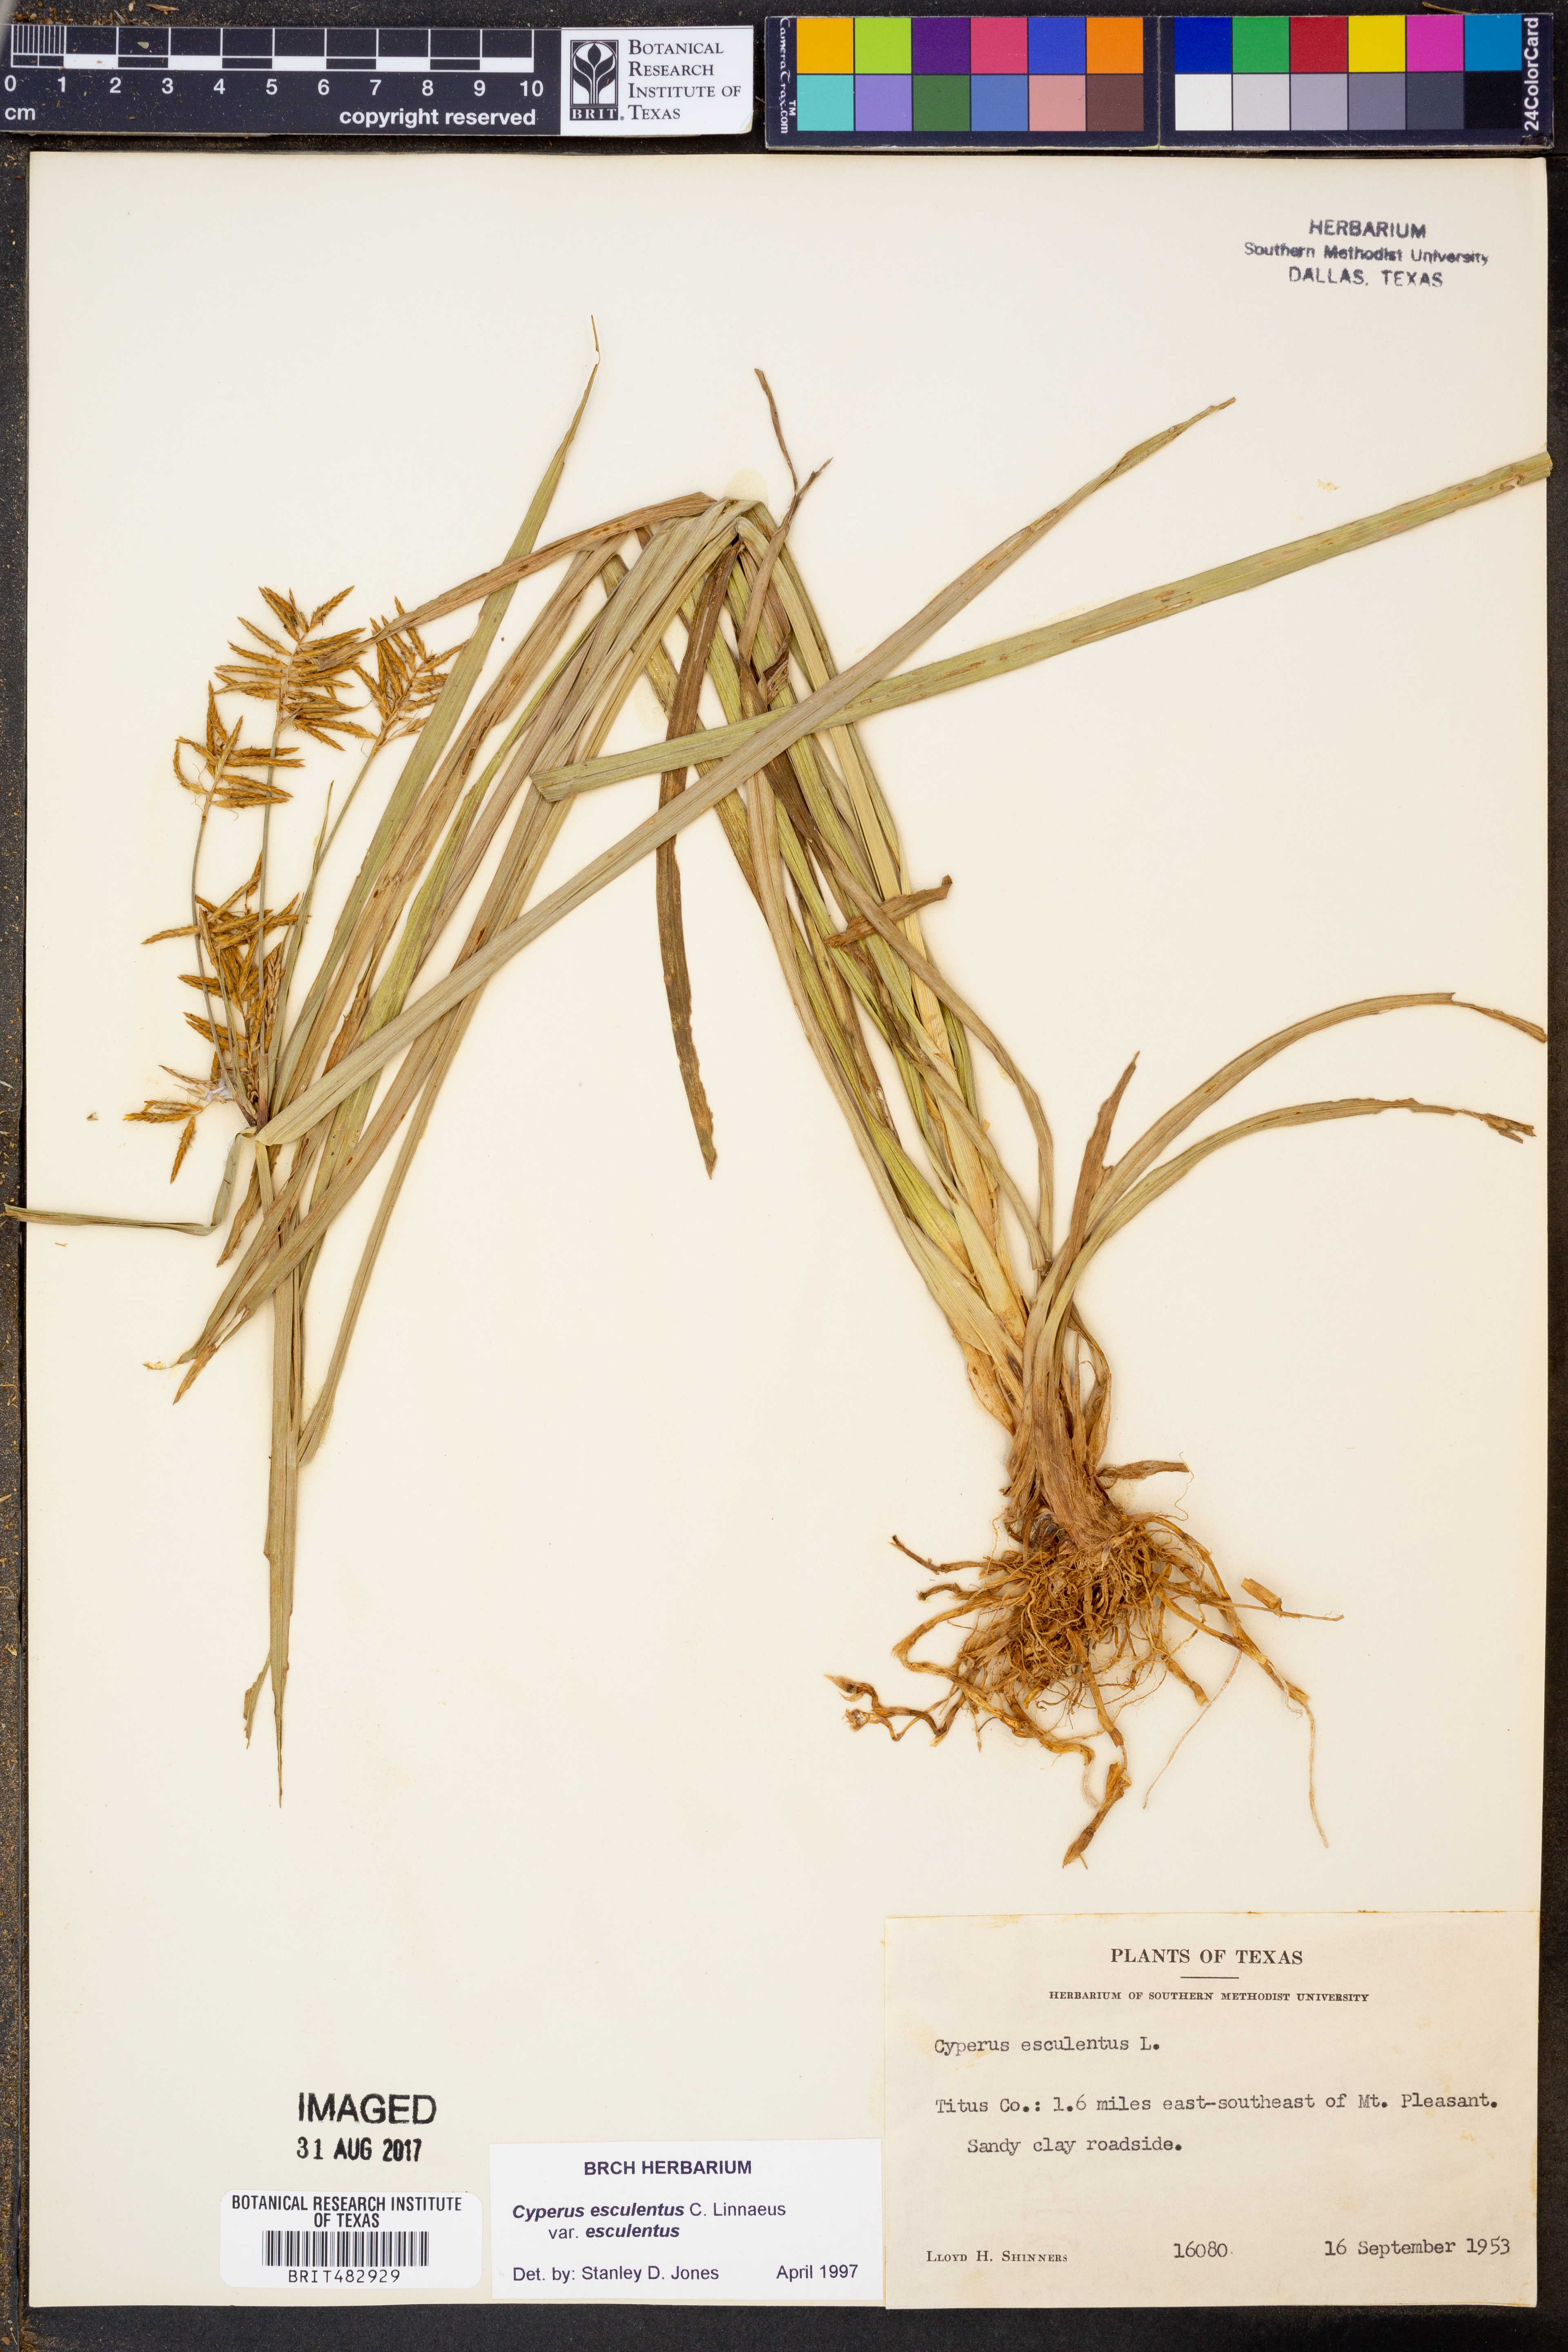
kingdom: Plantae
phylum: Tracheophyta
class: Liliopsida
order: Poales
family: Cyperaceae
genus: Cyperus
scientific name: Cyperus esculentus
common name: Yellow nutsedge
